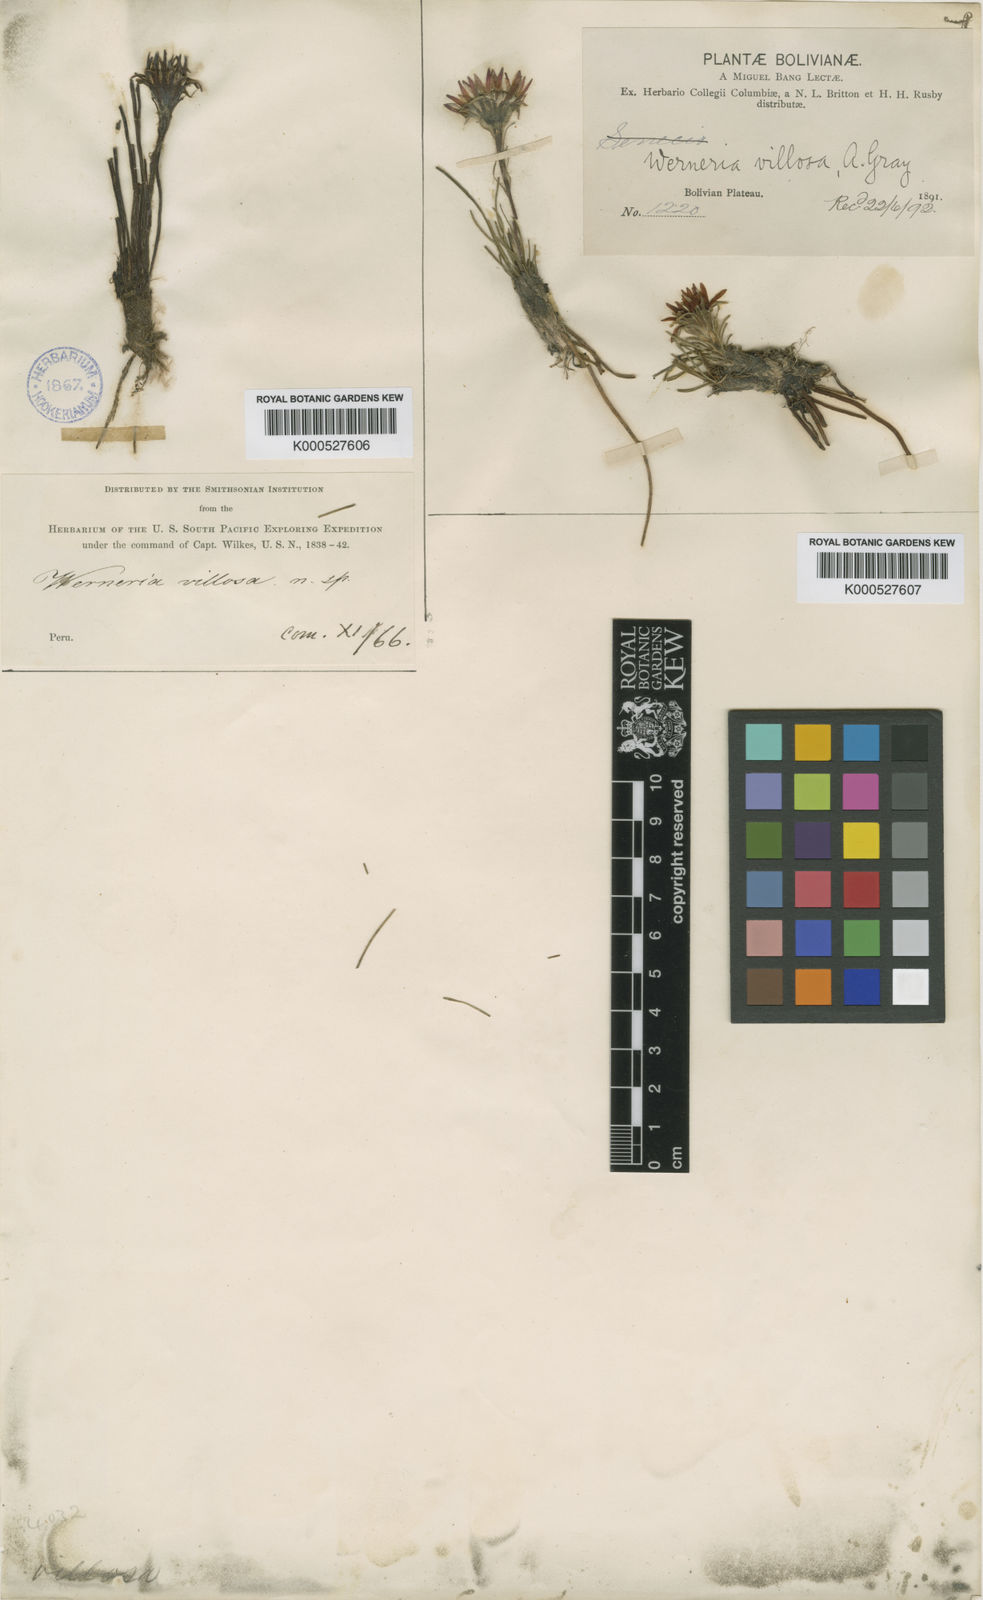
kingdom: Plantae
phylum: Tracheophyta
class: Magnoliopsida
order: Asterales
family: Asteraceae
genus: Rockhausenia
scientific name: Rockhausenia villosa
